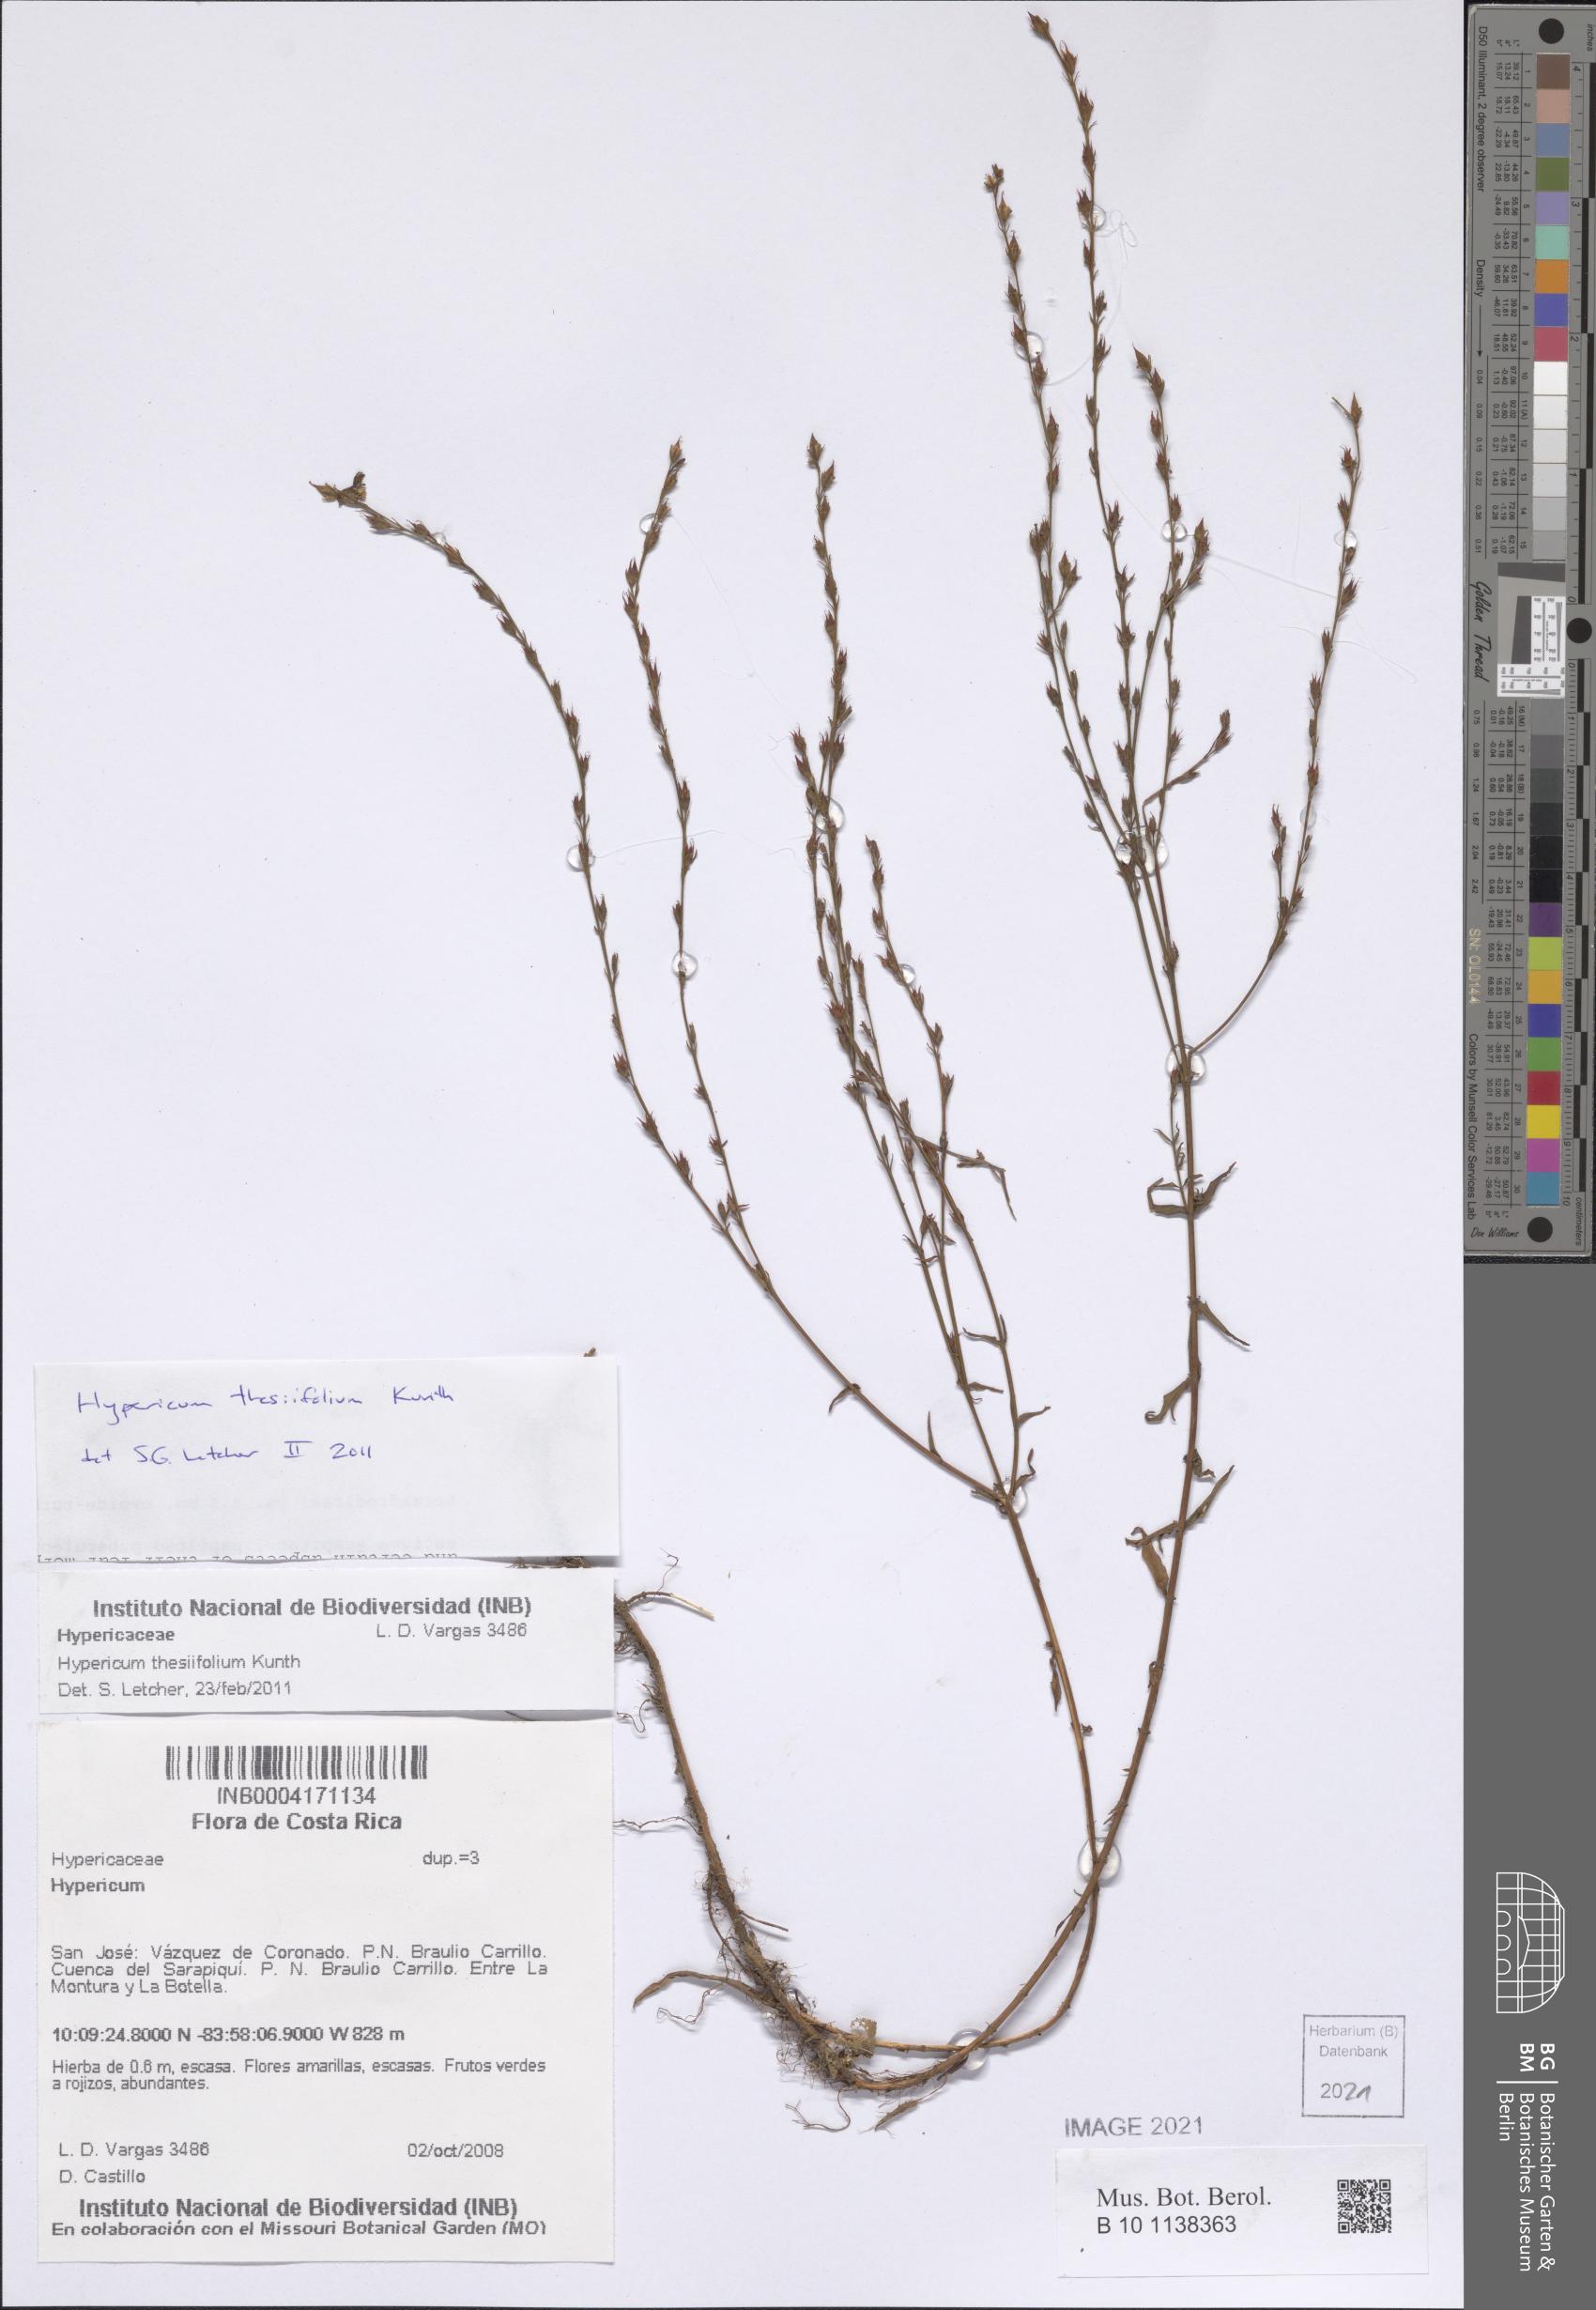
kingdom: Plantae
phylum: Tracheophyta
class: Magnoliopsida
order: Malpighiales
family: Hypericaceae
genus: Hypericum
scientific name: Hypericum thesiifolium
